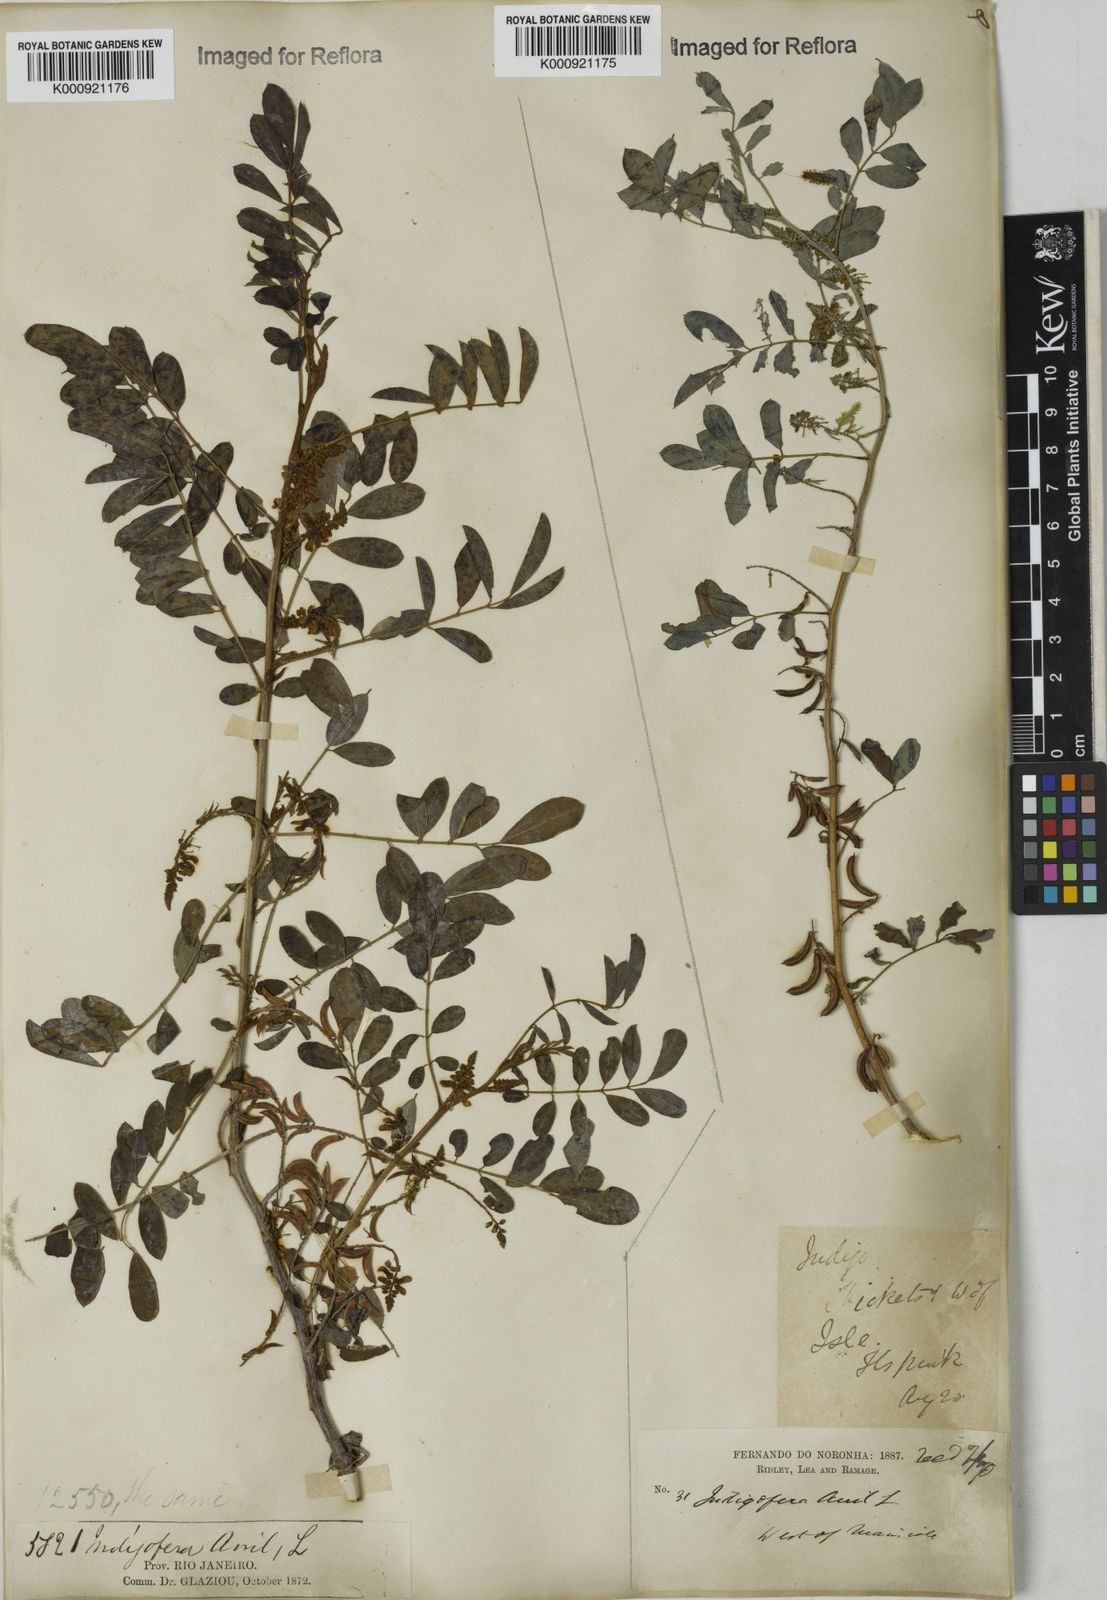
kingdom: Plantae
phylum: Tracheophyta
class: Magnoliopsida
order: Fabales
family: Fabaceae
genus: Indigofera
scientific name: Indigofera suffruticosa
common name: Anil de pasto
